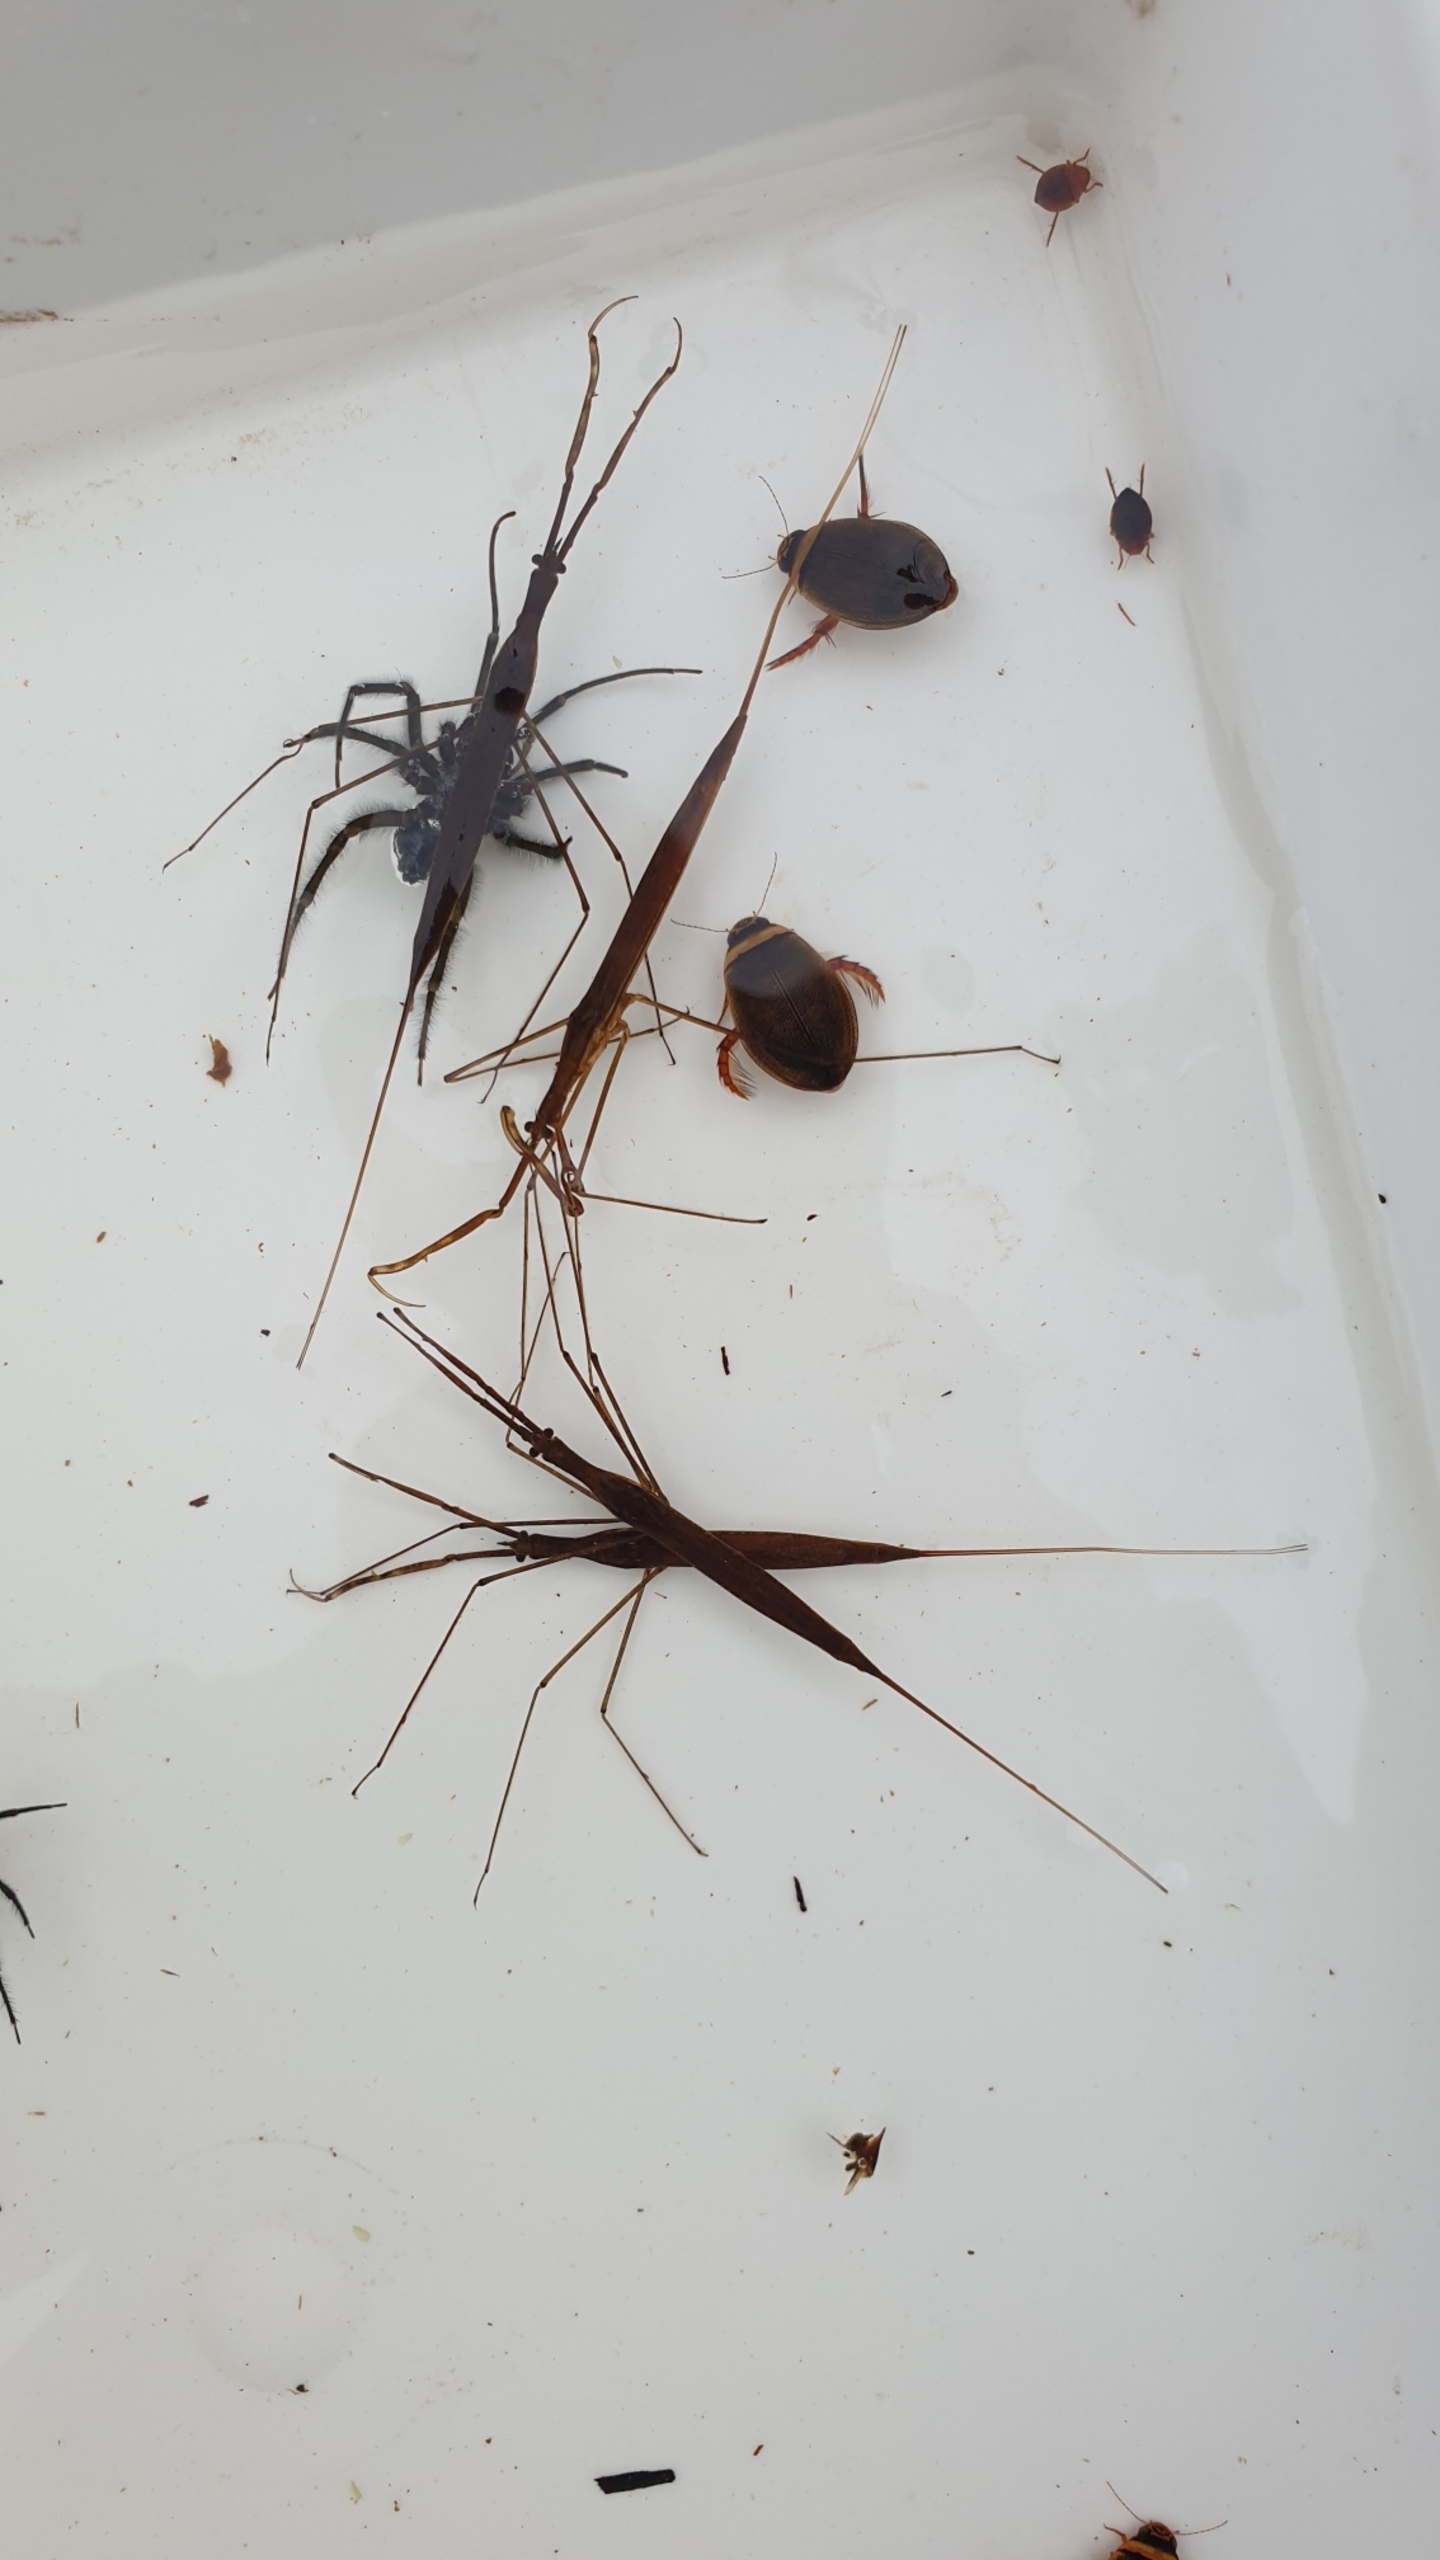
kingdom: Animalia
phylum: Arthropoda
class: Insecta
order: Hemiptera
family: Nepidae
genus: Ranatra
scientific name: Ranatra linearis
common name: Stavtæge
